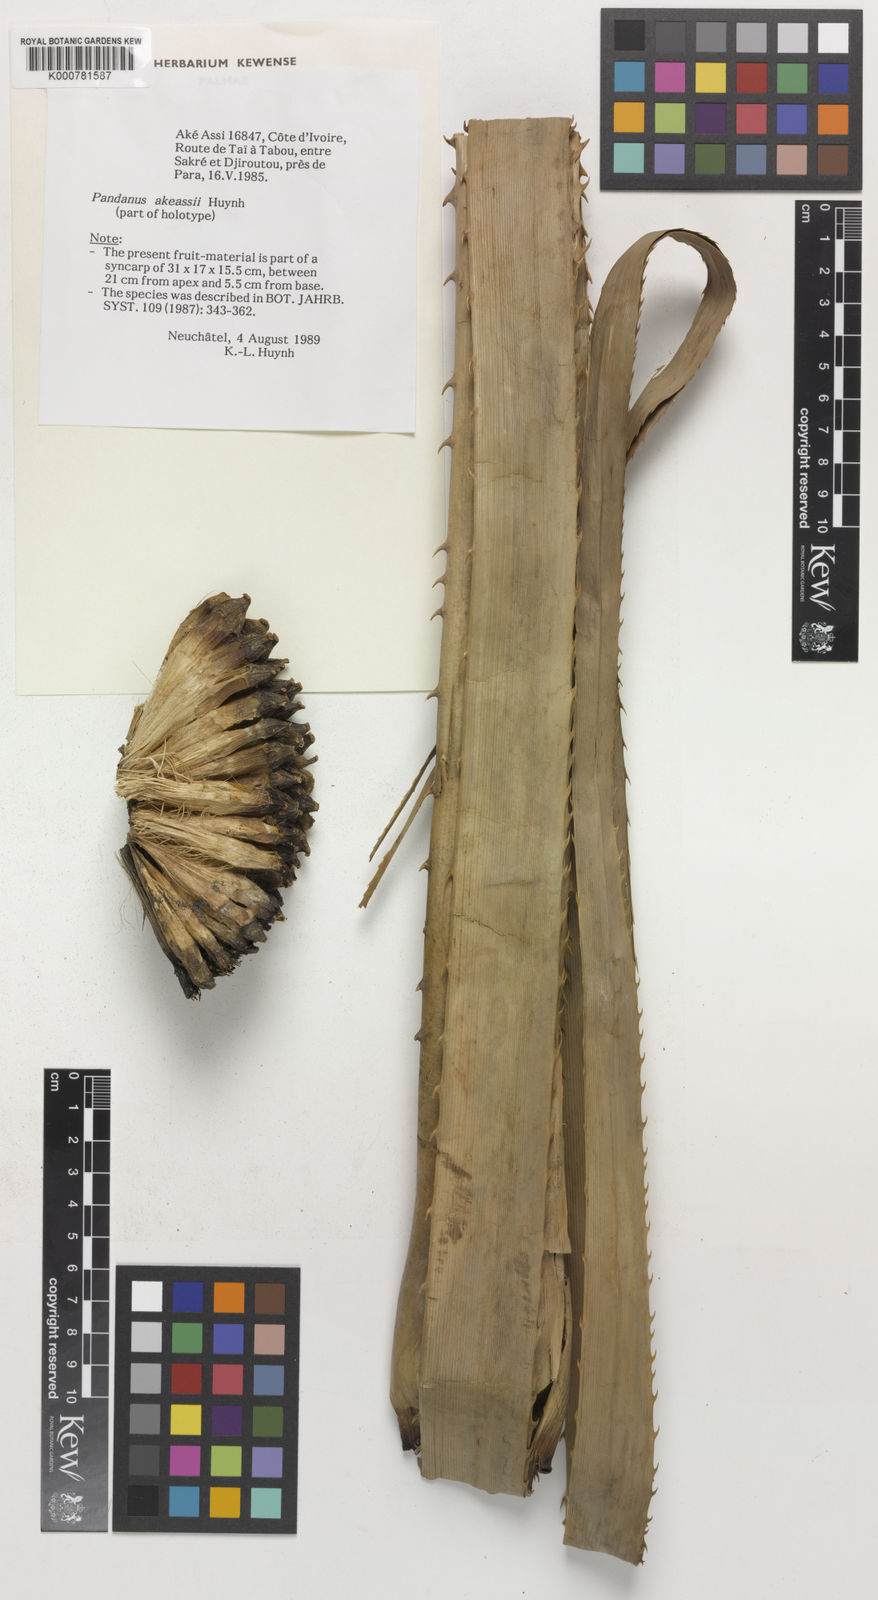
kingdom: Plantae
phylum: Tracheophyta
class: Liliopsida
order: Pandanales
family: Pandanaceae
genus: Pandanus
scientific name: Pandanus candelabrum
